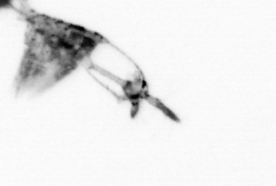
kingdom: Animalia
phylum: Arthropoda
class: Copepoda
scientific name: Copepoda
